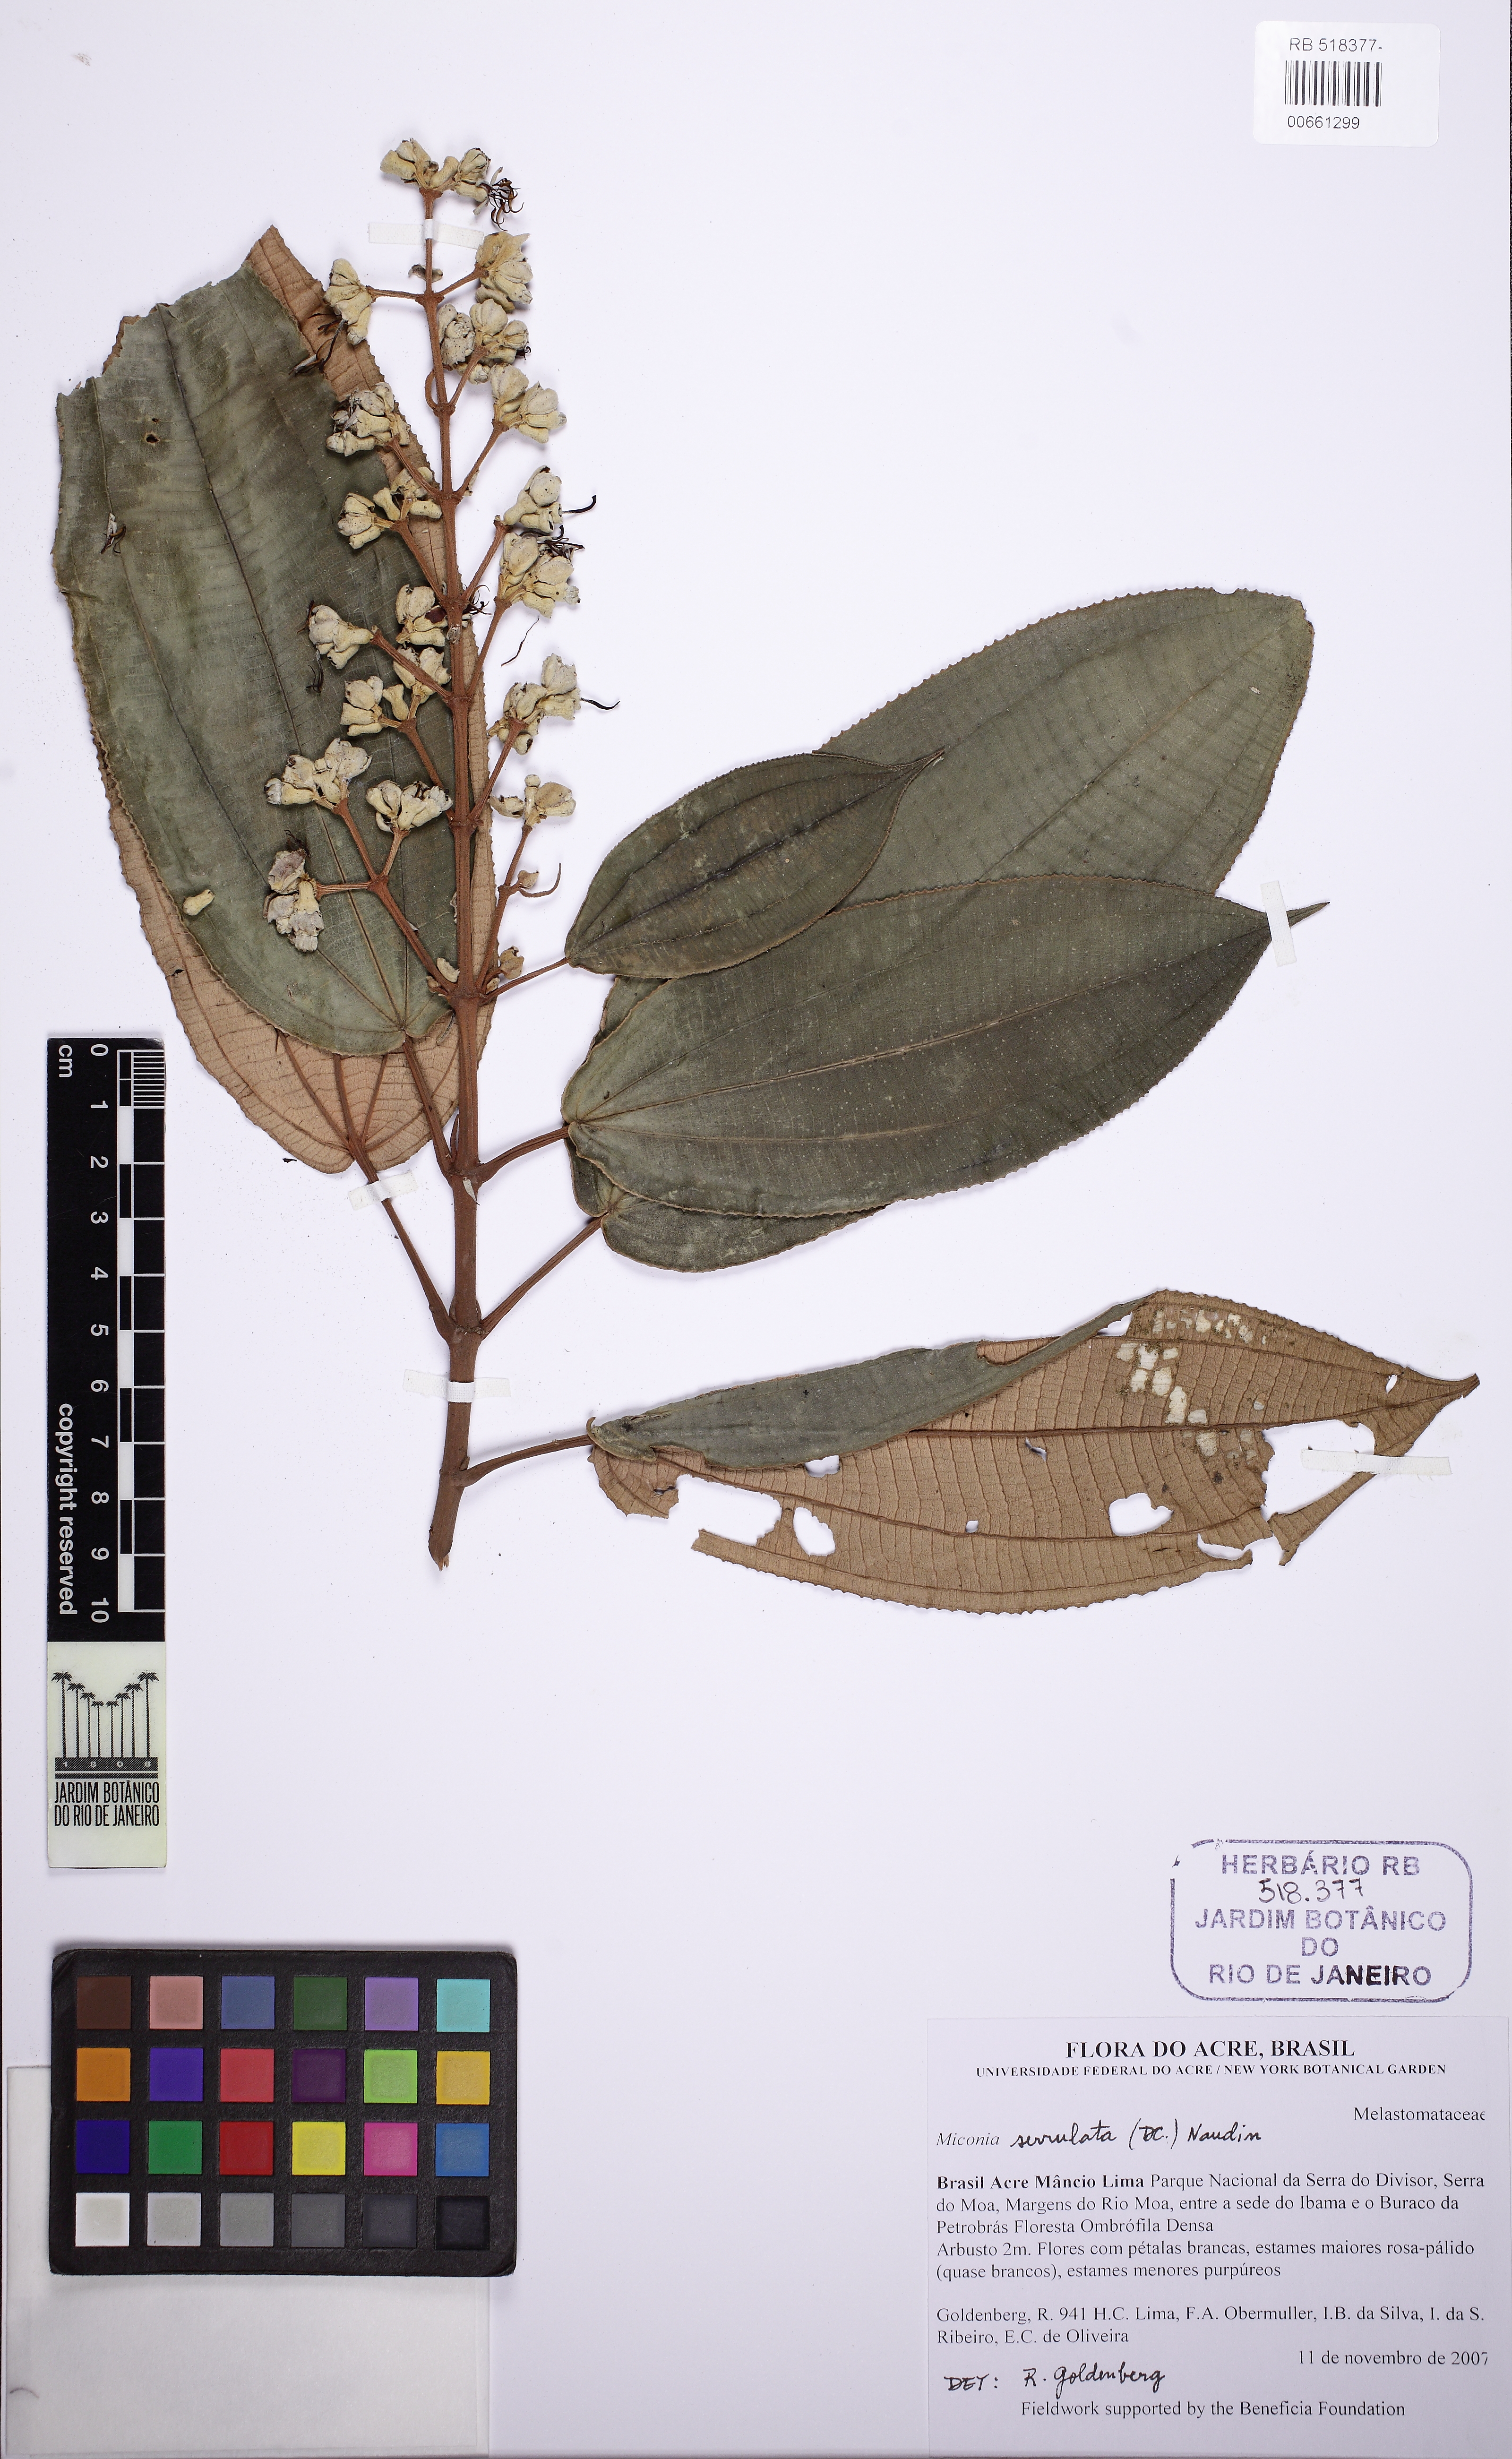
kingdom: Plantae
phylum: Tracheophyta
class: Magnoliopsida
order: Myrtales
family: Melastomataceae
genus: Miconia
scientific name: Miconia serrulata
